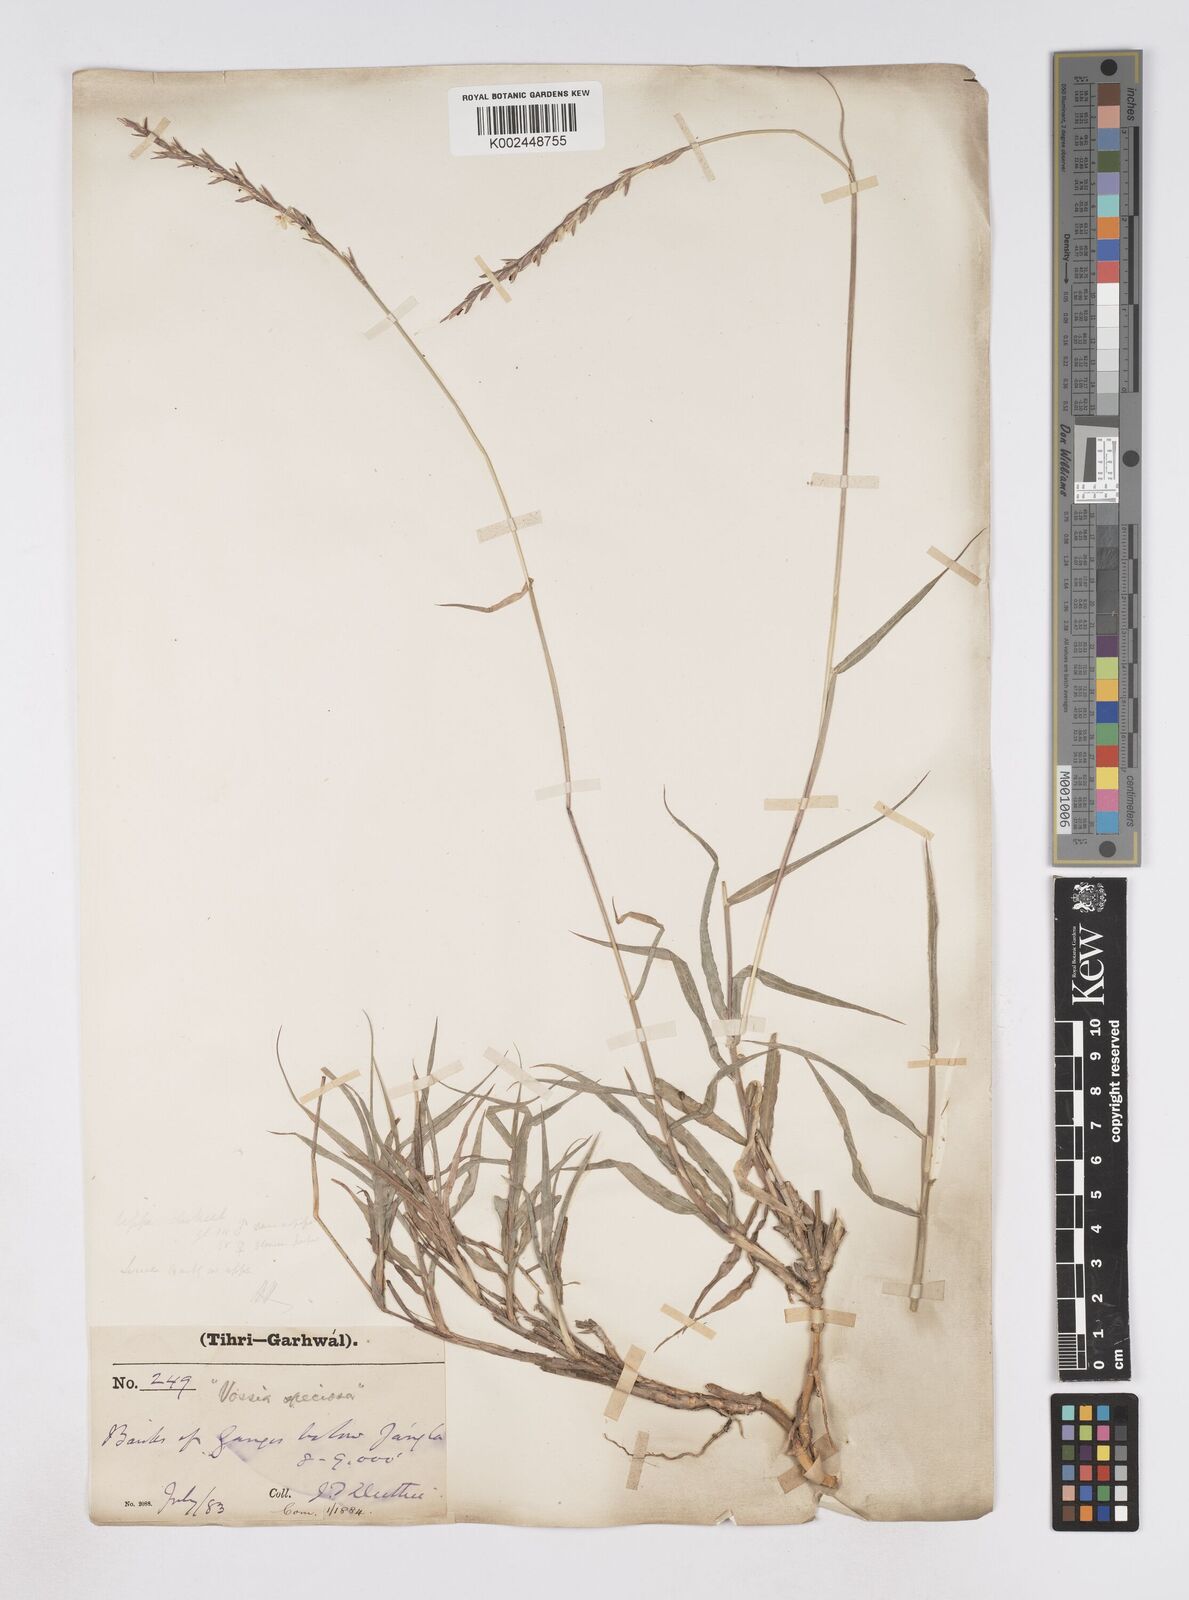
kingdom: Plantae
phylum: Tracheophyta
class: Liliopsida
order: Poales
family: Poaceae
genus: Phacelurus
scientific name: Phacelurus speciosus
